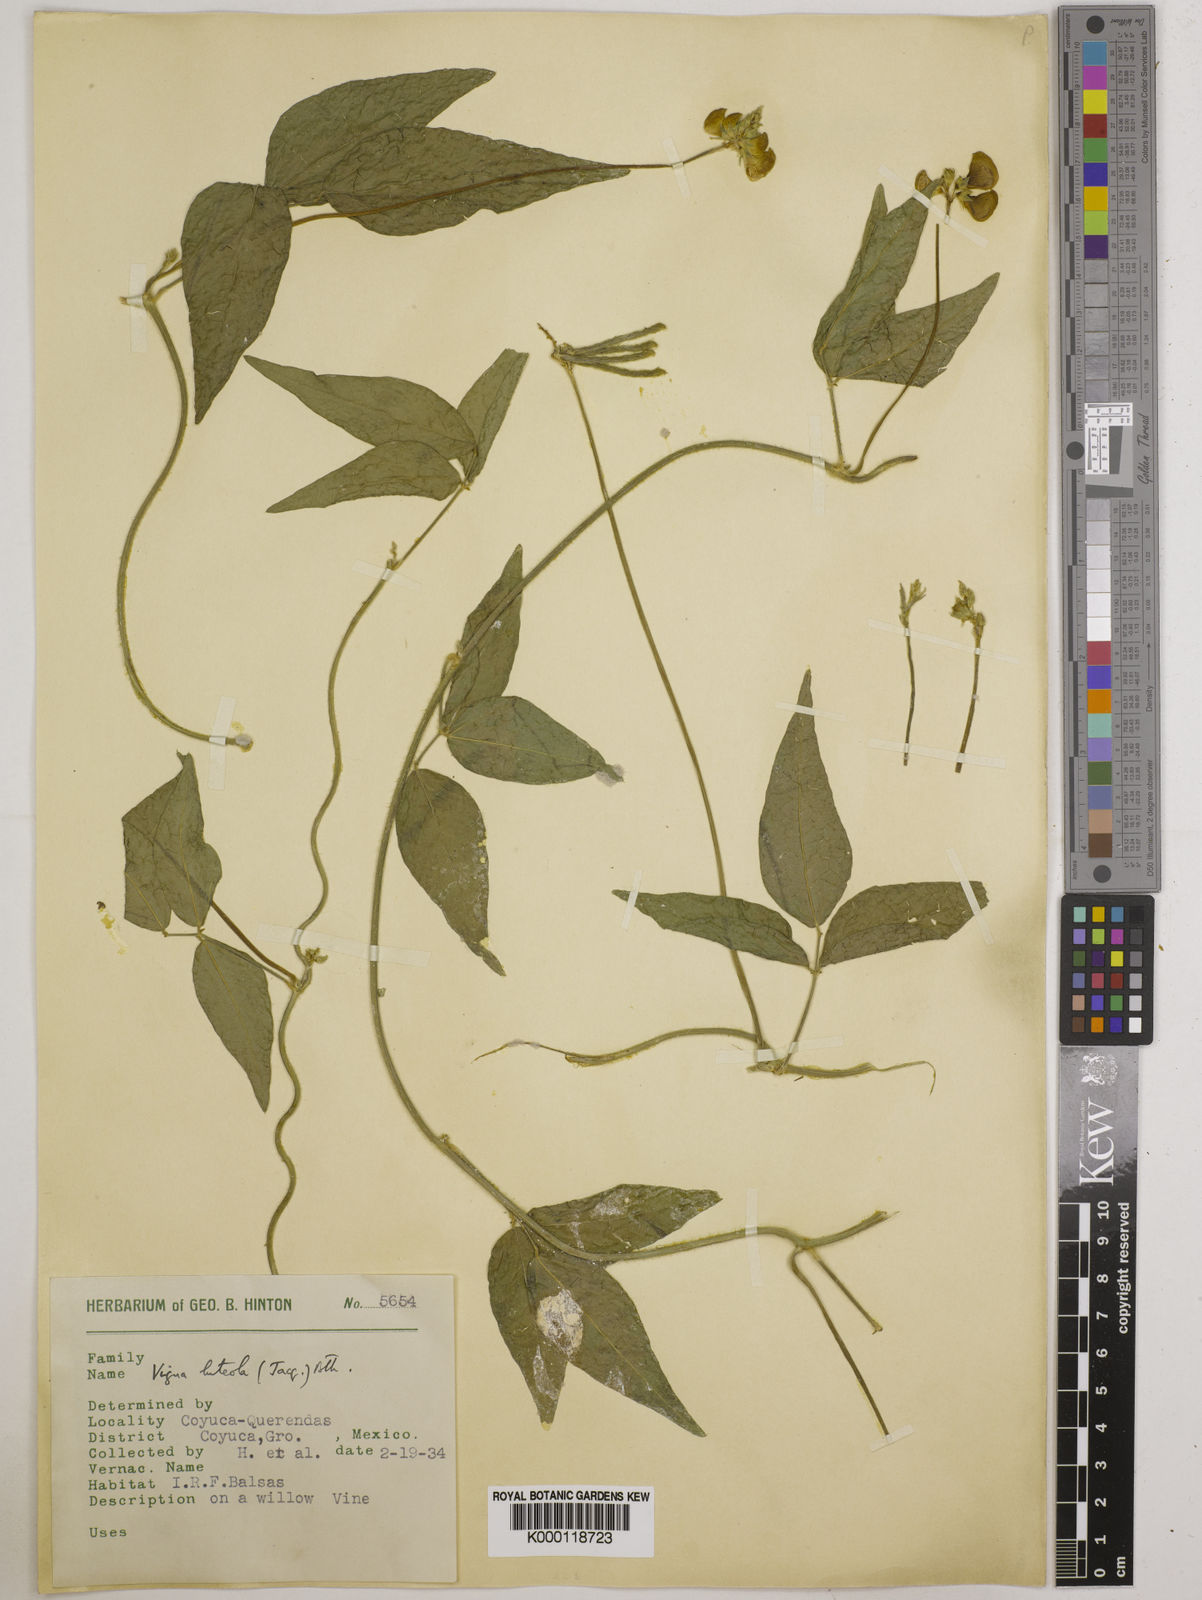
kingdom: Plantae
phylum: Tracheophyta
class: Magnoliopsida
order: Fabales
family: Fabaceae
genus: Vigna
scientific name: Vigna luteola
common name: Hairypod cowpea
